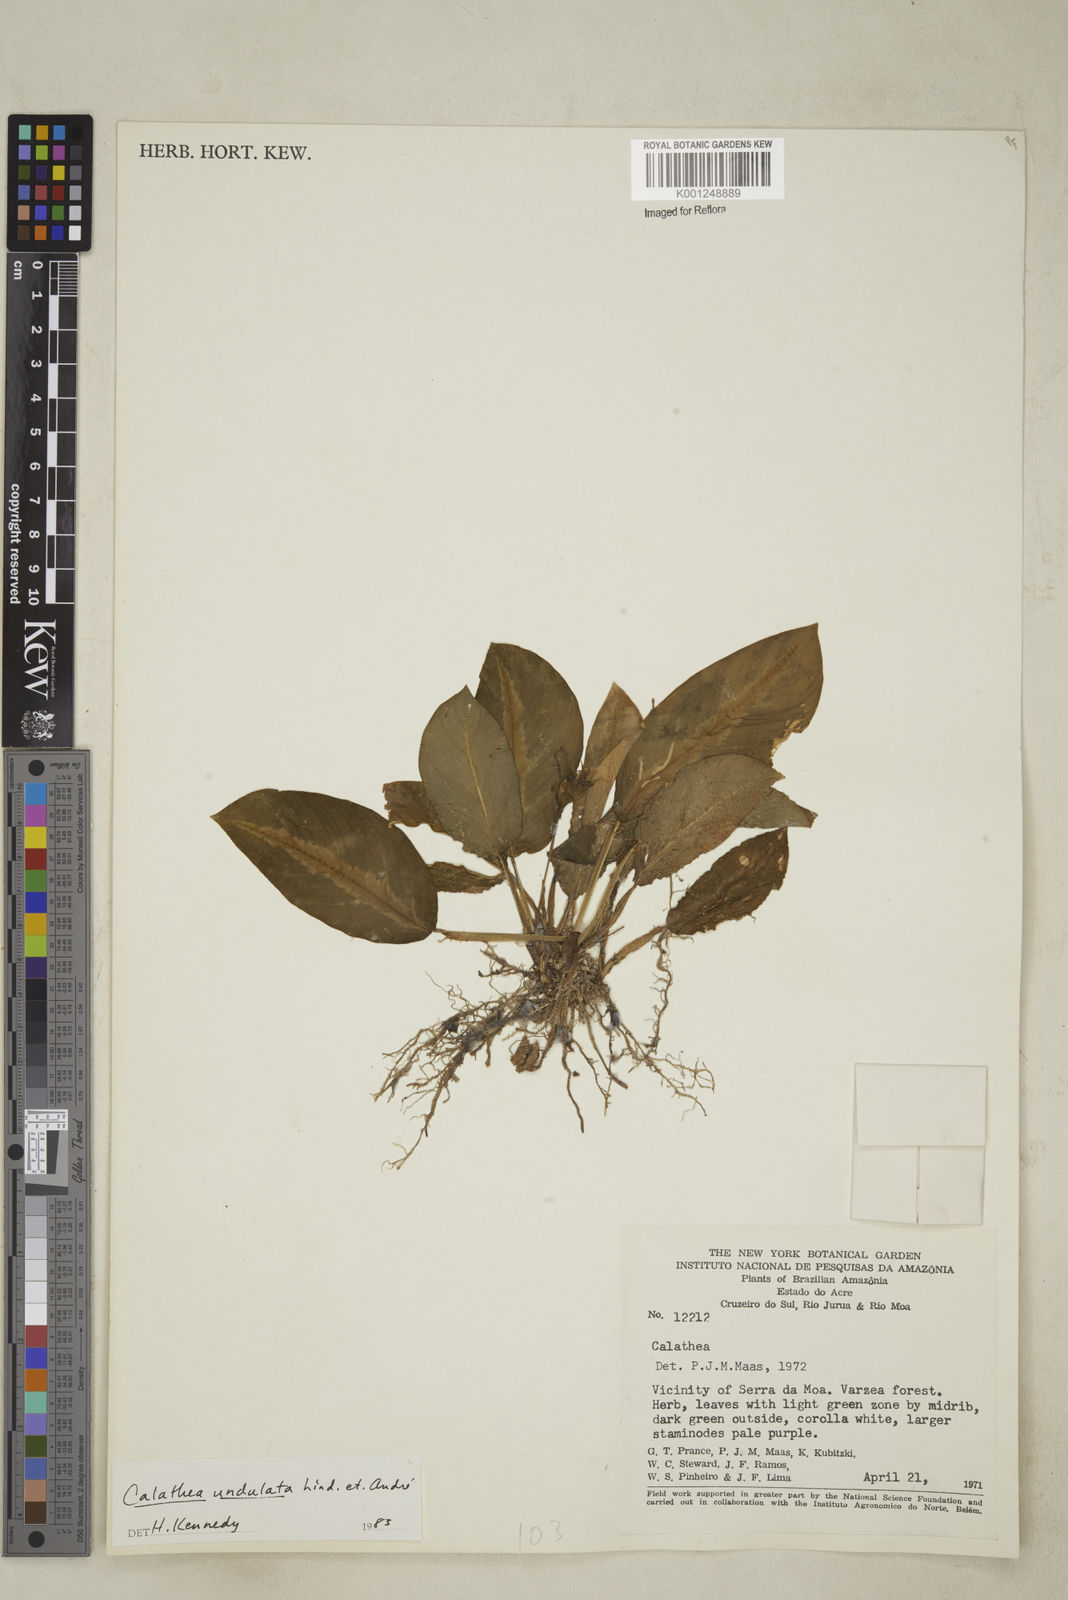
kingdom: Plantae
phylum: Tracheophyta
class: Liliopsida
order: Zingiberales
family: Marantaceae
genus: Goeppertia
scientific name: Goeppertia undulata
